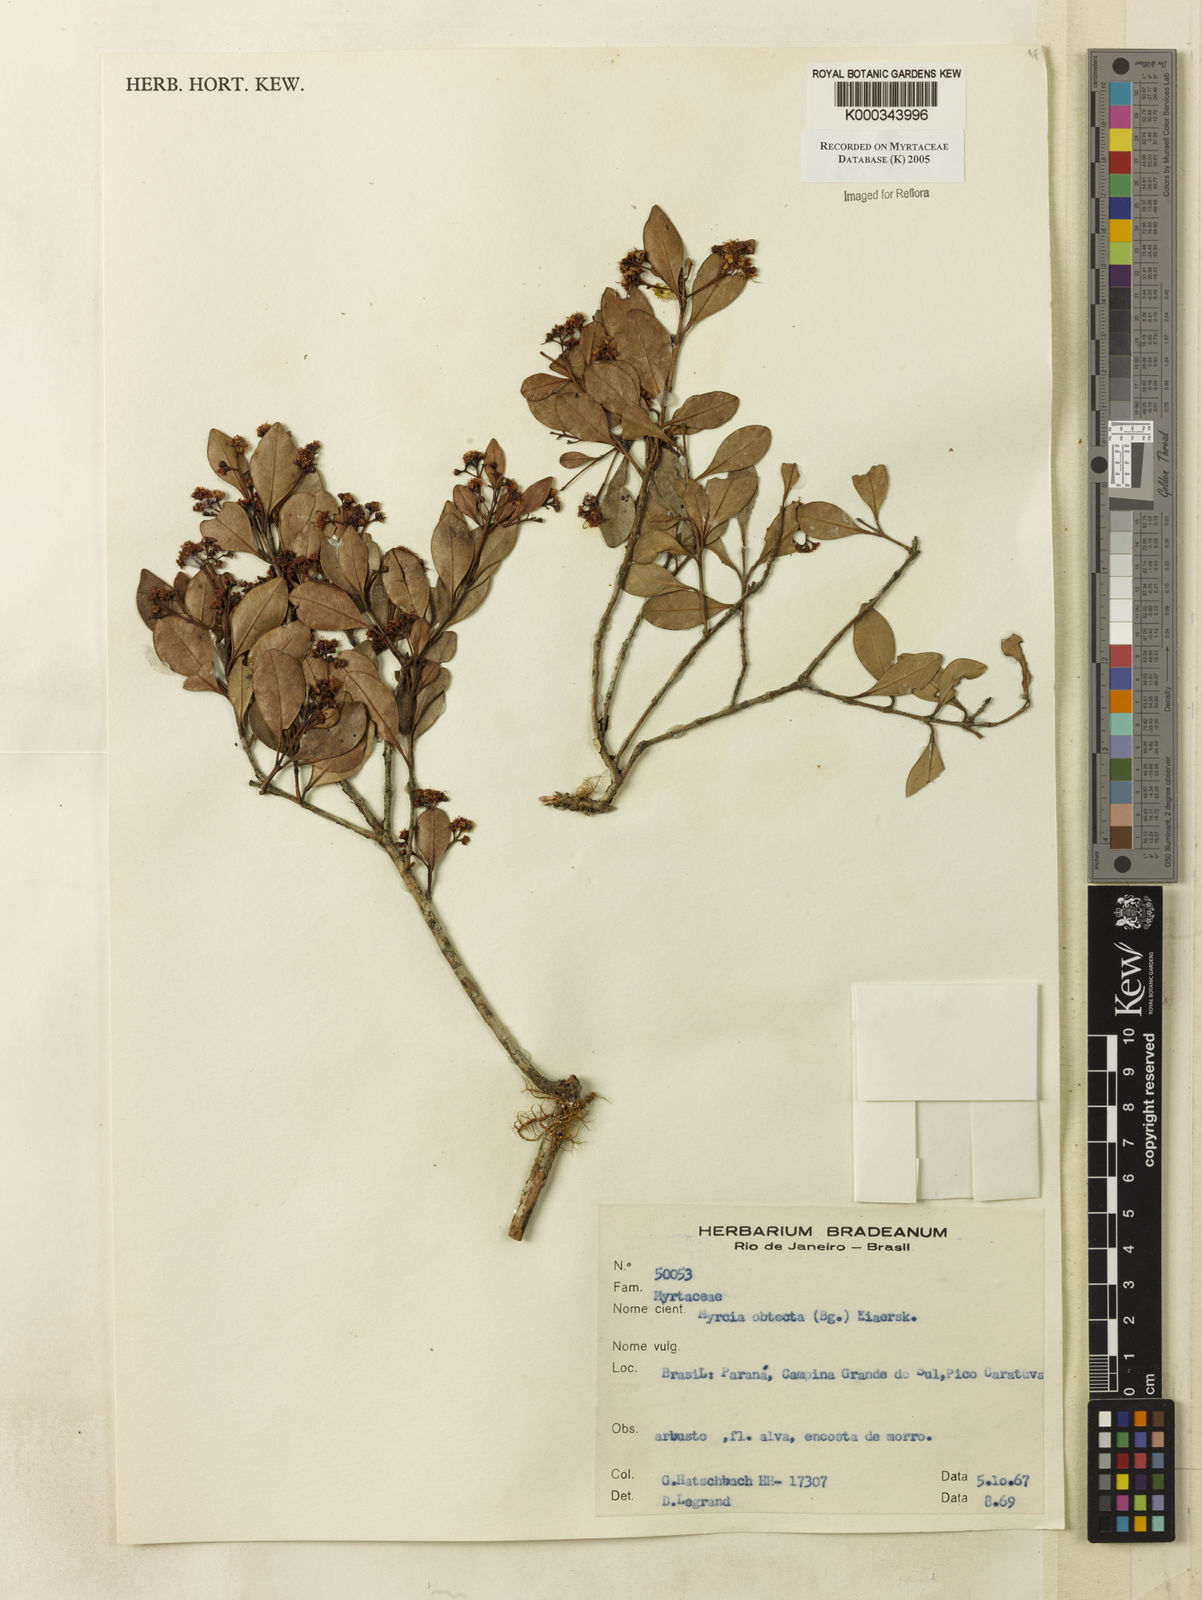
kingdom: Plantae
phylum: Tracheophyta
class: Magnoliopsida
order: Myrtales
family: Myrtaceae
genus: Myrcia
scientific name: Myrcia guianensis
